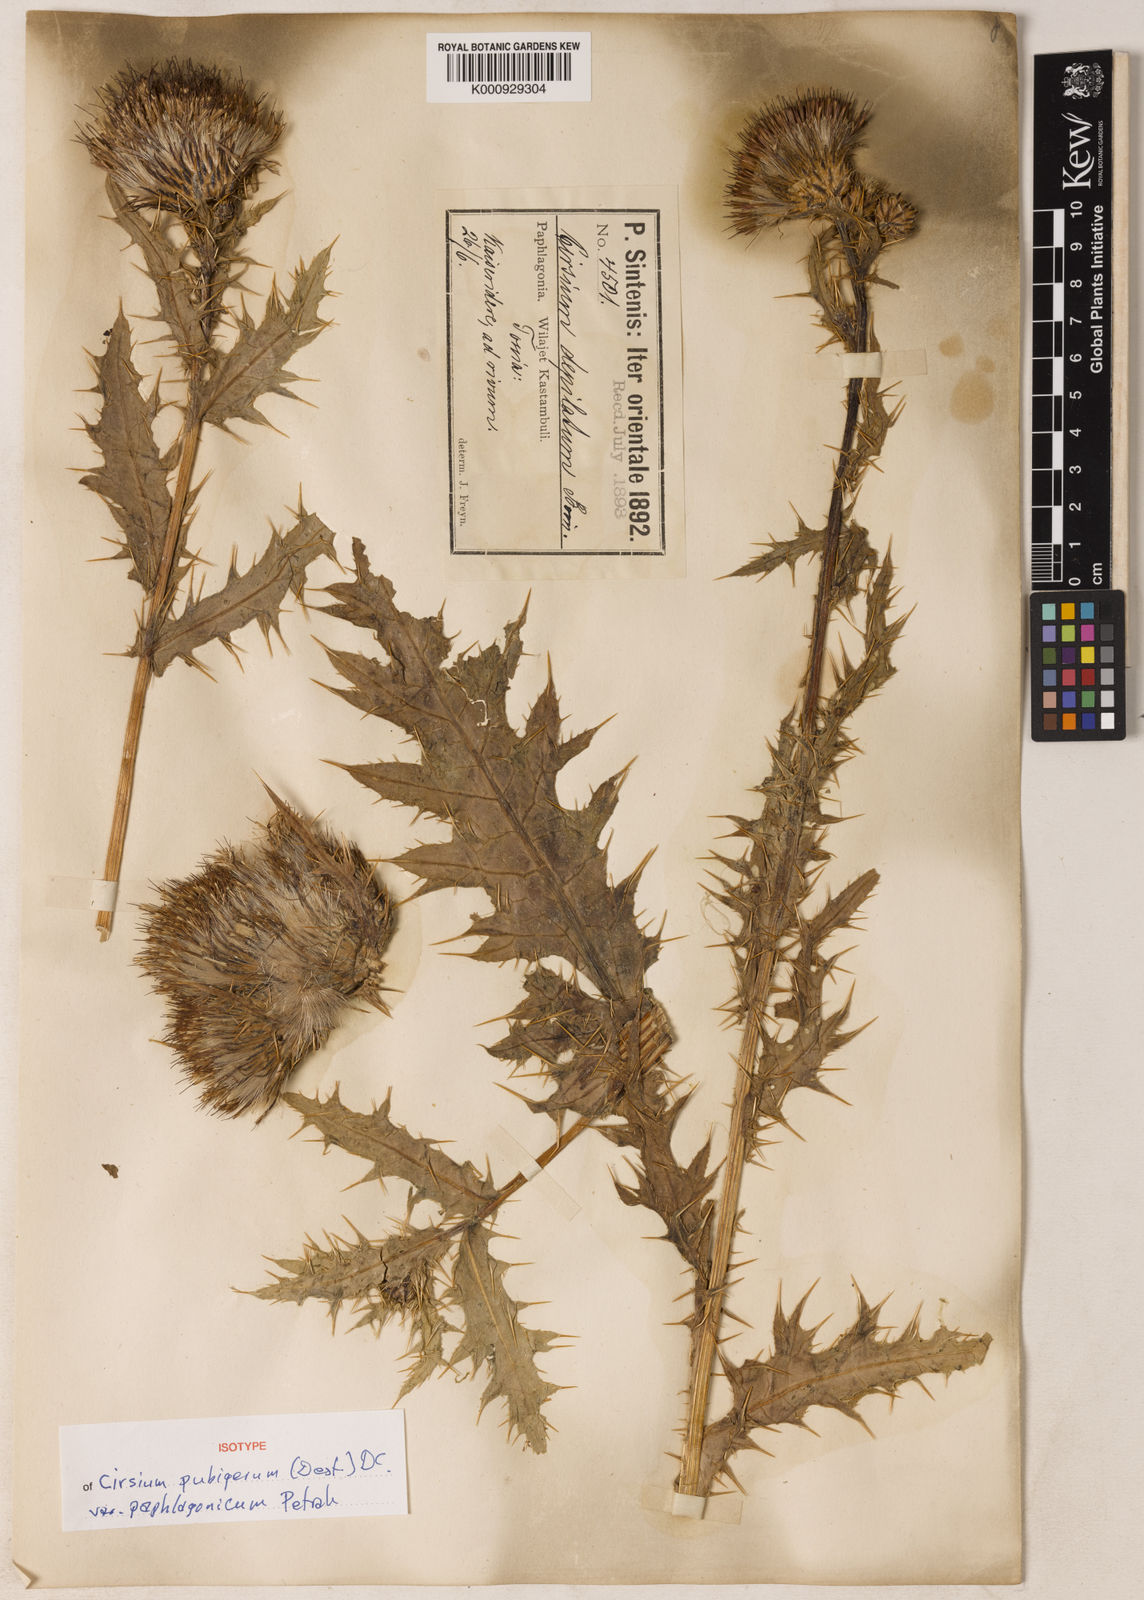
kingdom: Plantae
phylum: Tracheophyta
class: Magnoliopsida
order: Asterales
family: Asteraceae
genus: Cirsium
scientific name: Cirsium pubigerum
